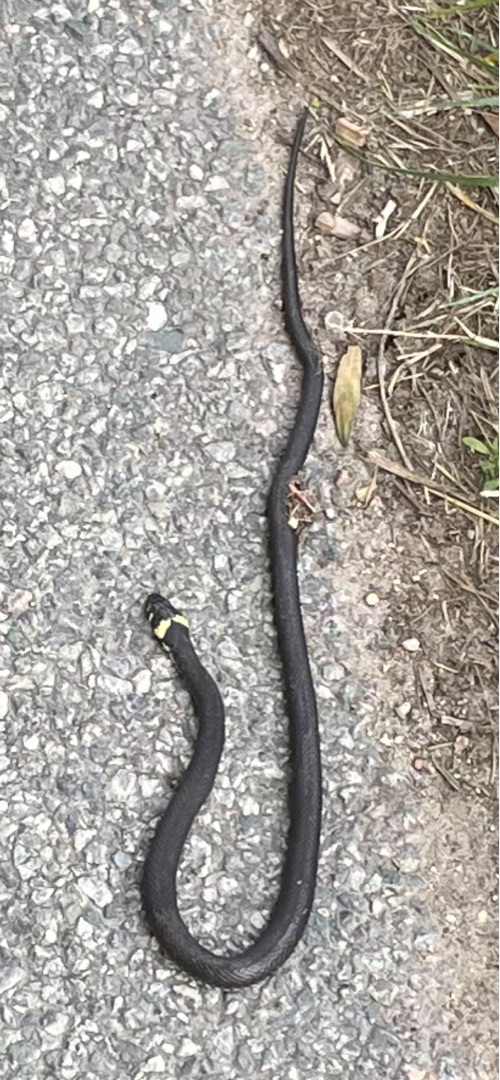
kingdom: Animalia
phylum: Chordata
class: Squamata
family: Colubridae
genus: Natrix
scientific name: Natrix natrix
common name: Snog
